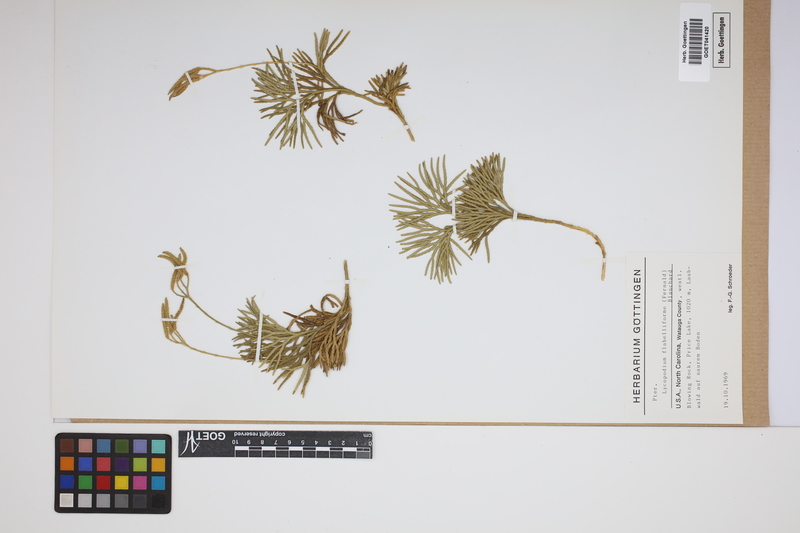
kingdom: Plantae
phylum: Tracheophyta
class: Lycopodiopsida
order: Lycopodiales
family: Lycopodiaceae
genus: Diphasiastrum
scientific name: Diphasiastrum digitatum
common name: Southern running-pine
